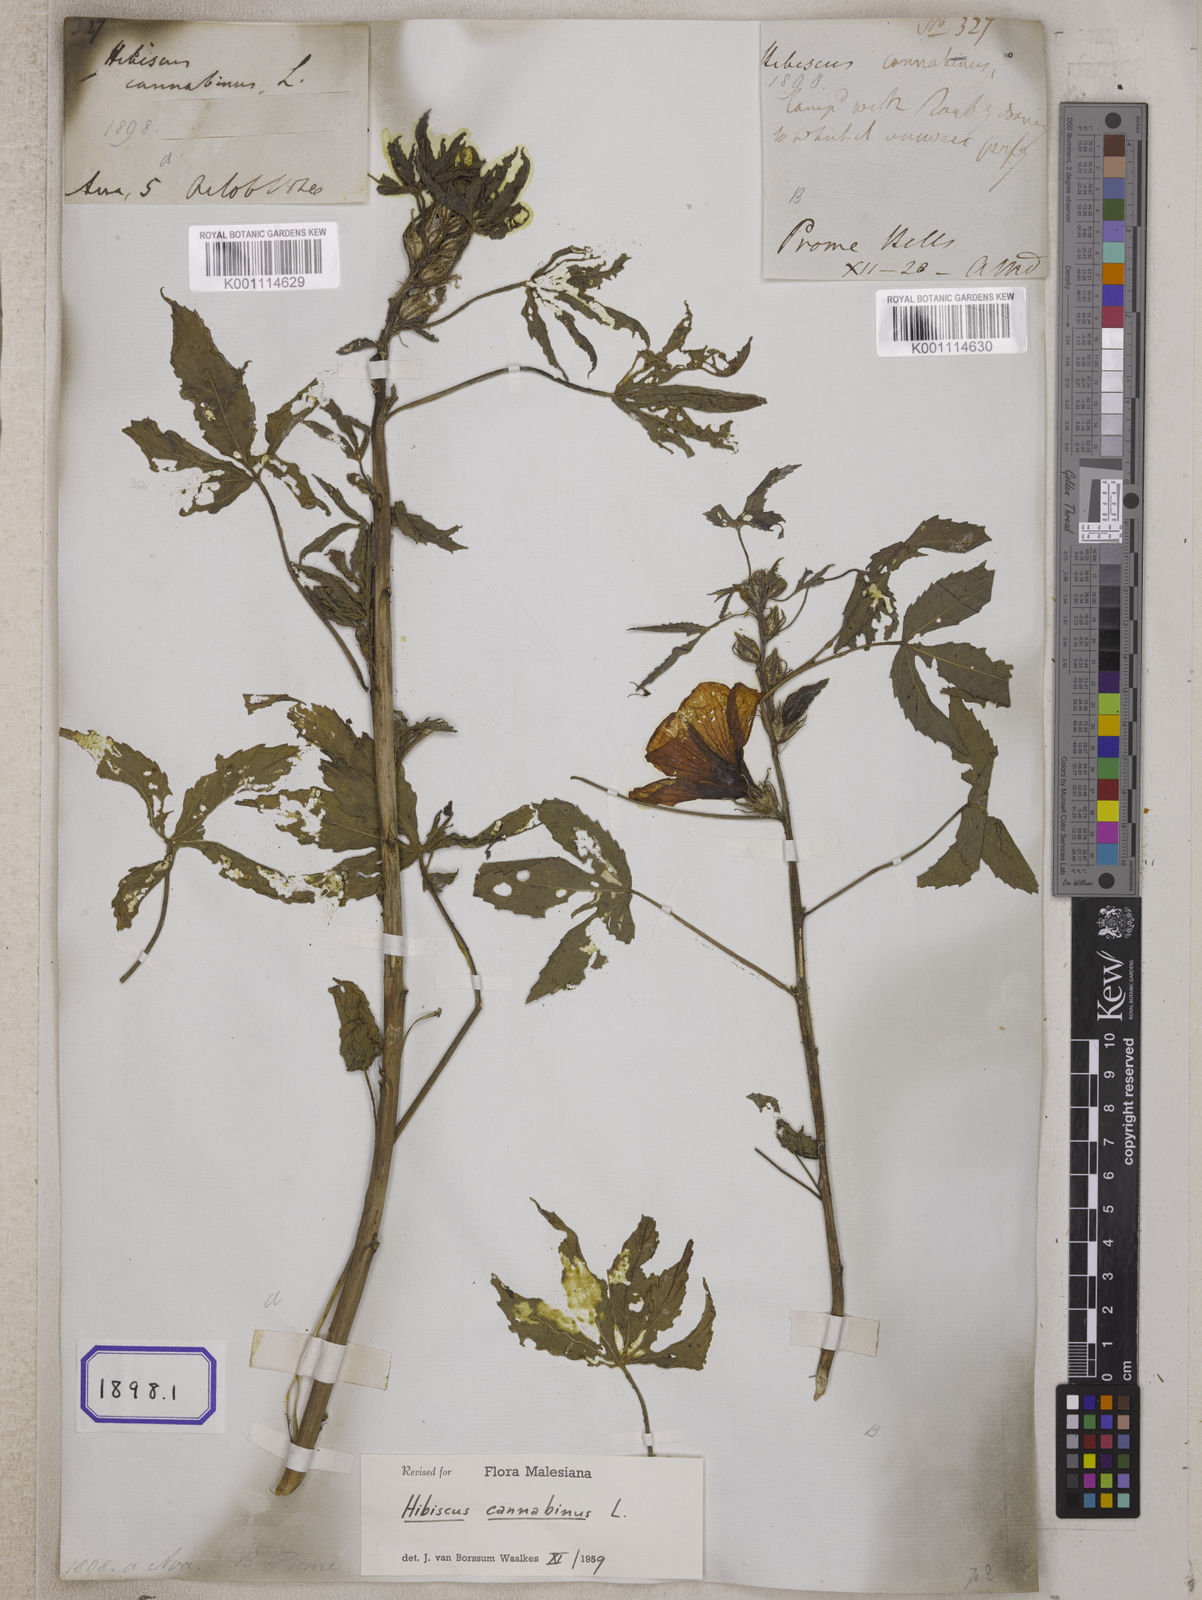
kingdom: Plantae
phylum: Tracheophyta
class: Magnoliopsida
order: Malvales
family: Malvaceae
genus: Hibiscus
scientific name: Hibiscus cannabinus
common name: Brown indianhemp
